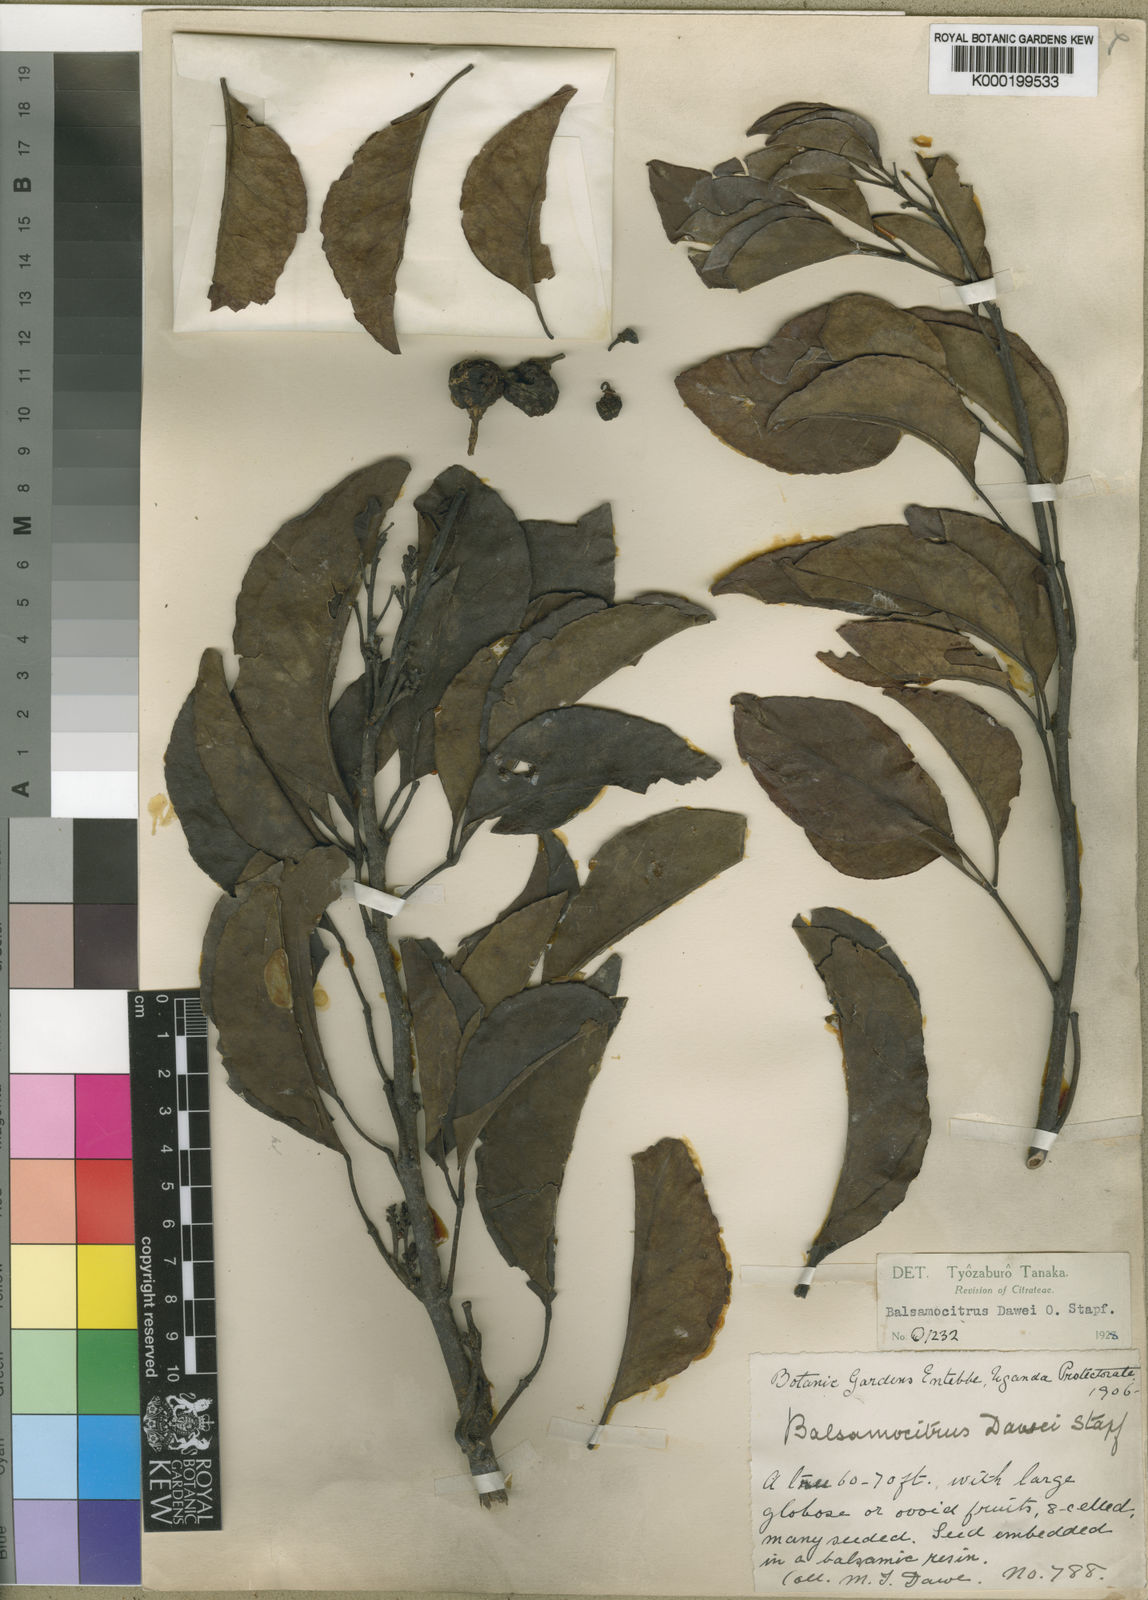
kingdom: Plantae
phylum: Tracheophyta
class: Magnoliopsida
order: Sapindales
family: Rutaceae
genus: Balsamocitrus
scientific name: Balsamocitrus dawei
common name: Uganda powder-flask-fruit
